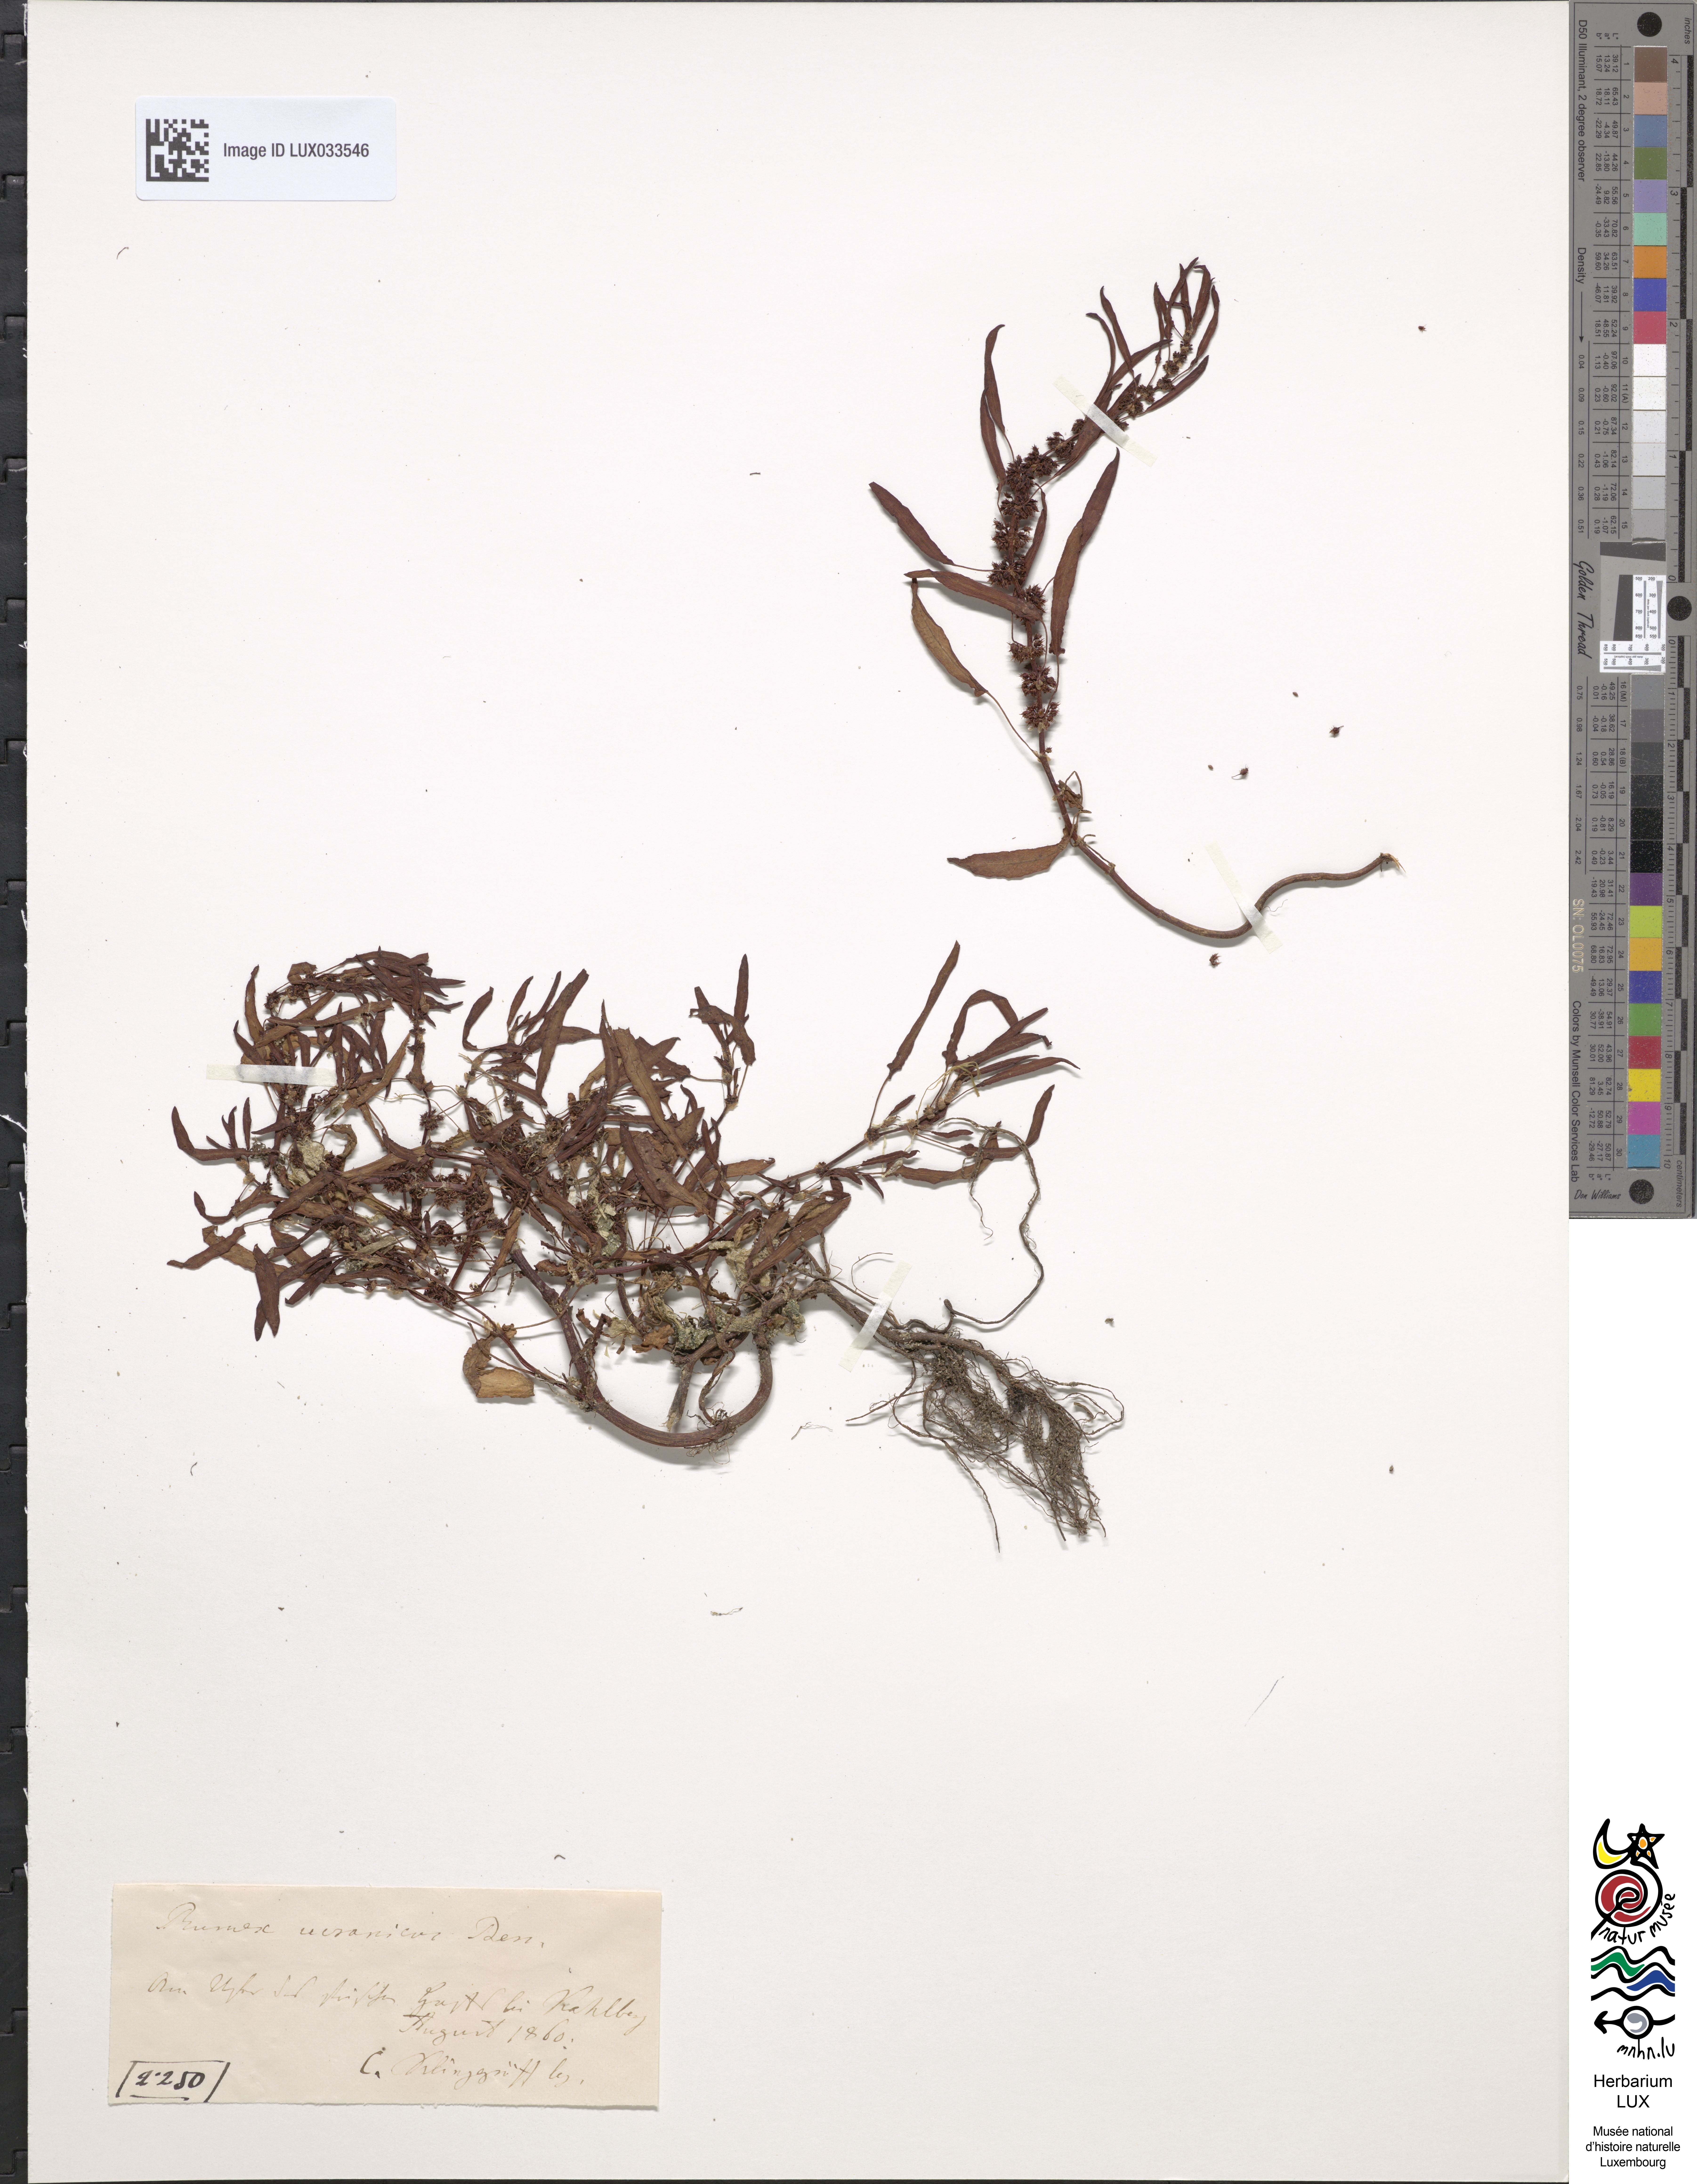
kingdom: Plantae
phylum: Tracheophyta
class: Magnoliopsida
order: Caryophyllales
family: Polygonaceae
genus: Rumex
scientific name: Rumex ucranicus
